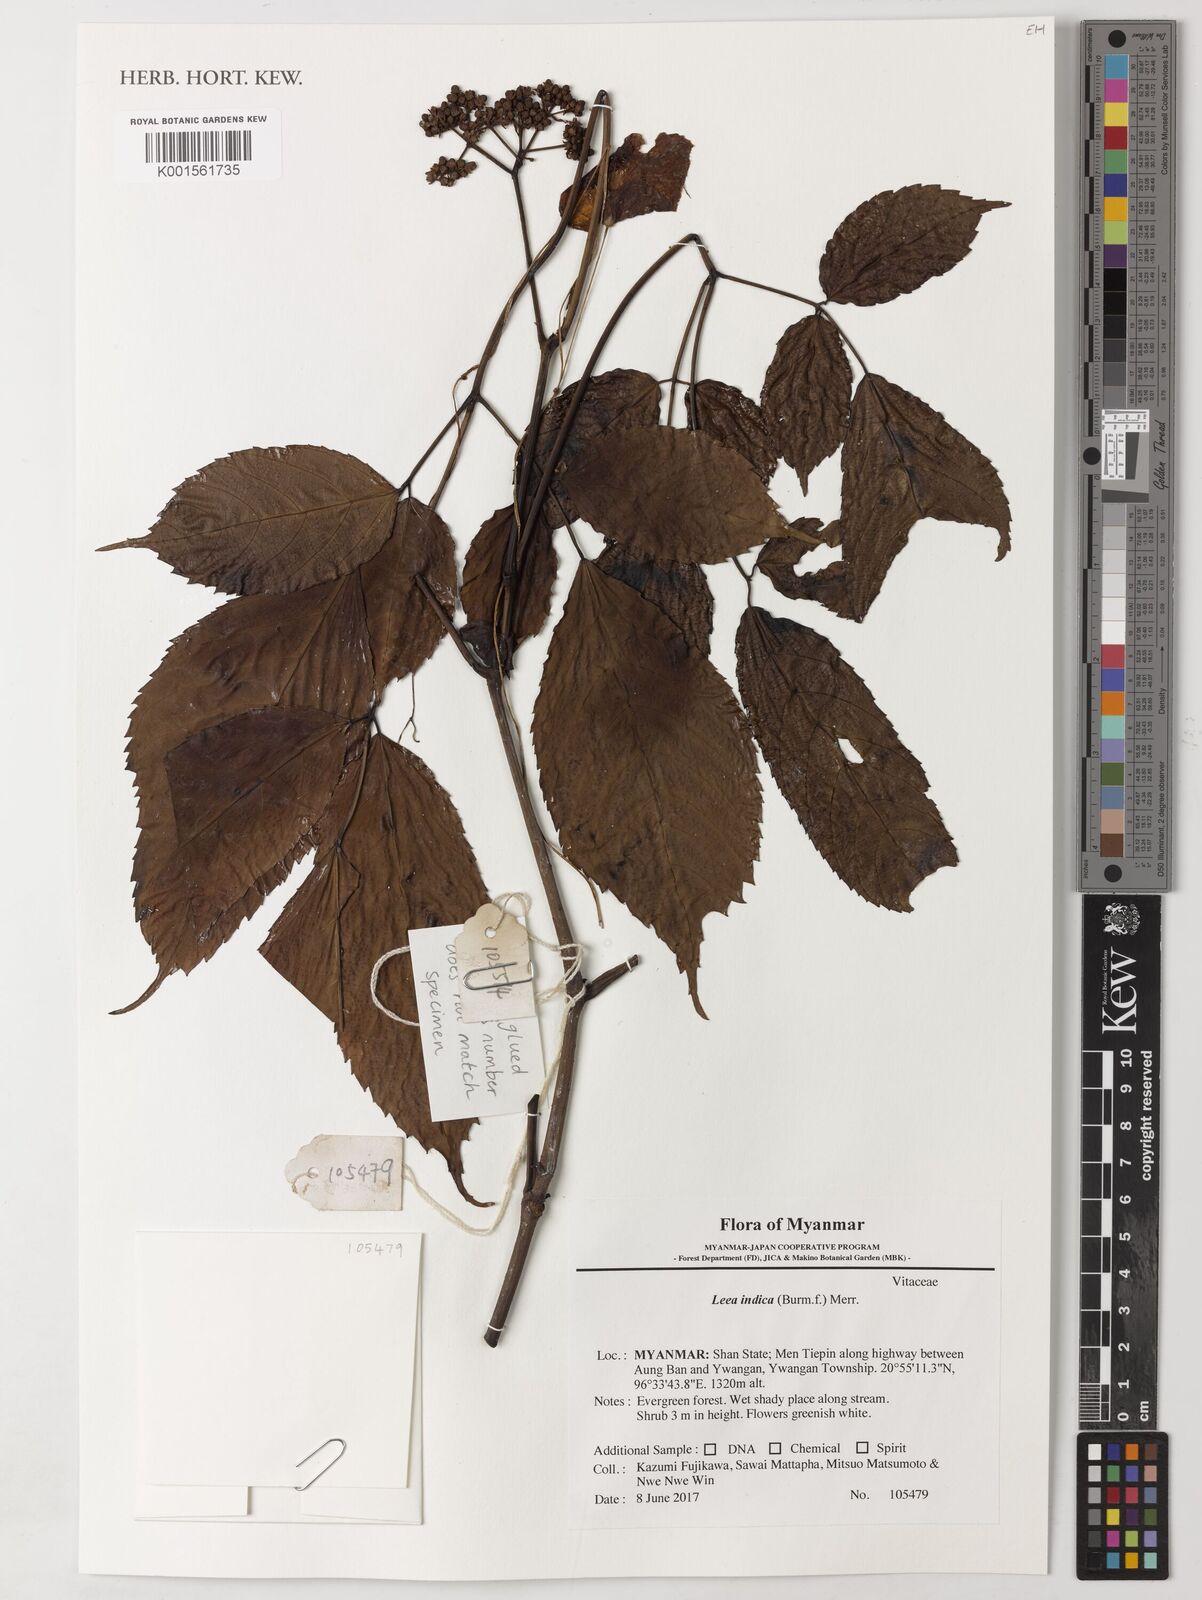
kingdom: Plantae
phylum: Tracheophyta
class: Magnoliopsida
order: Vitales
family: Vitaceae
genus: Leea
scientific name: Leea indica
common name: Bandicoot-berry
